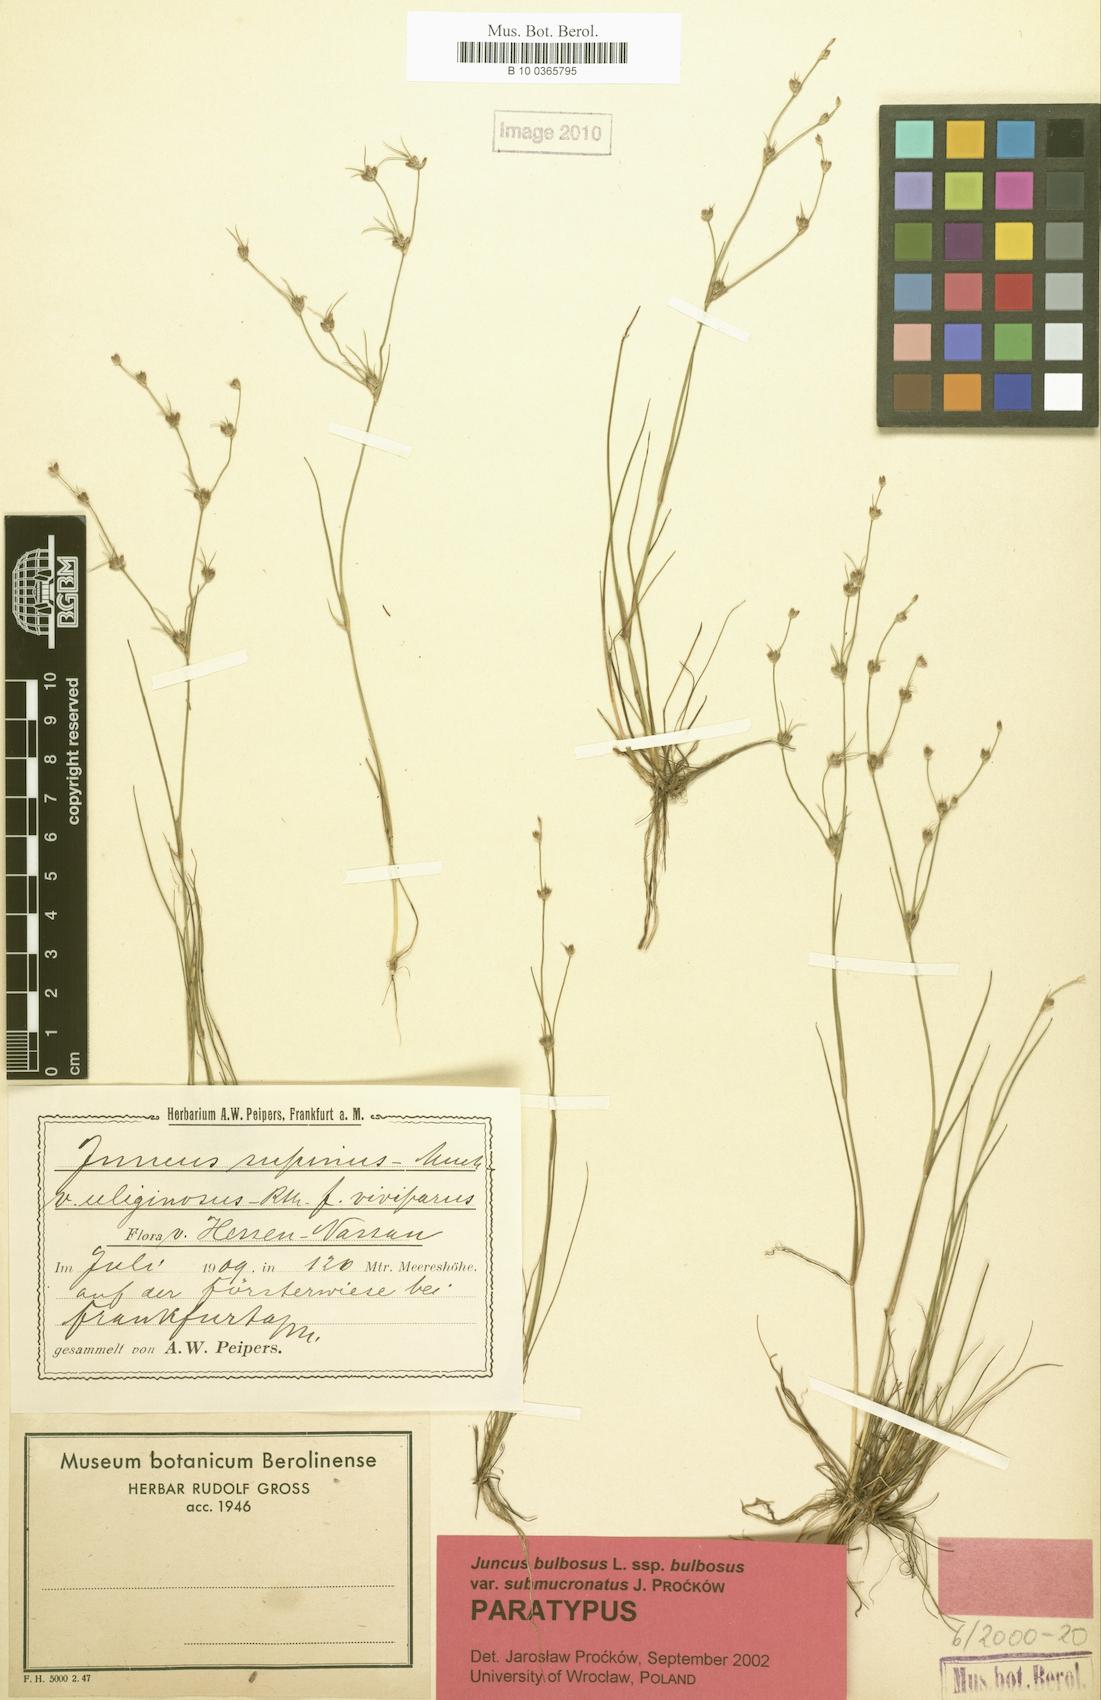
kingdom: Plantae
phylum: Tracheophyta
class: Liliopsida
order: Poales
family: Juncaceae
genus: Juncus
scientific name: Juncus bulbosus
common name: Bulbous rush
